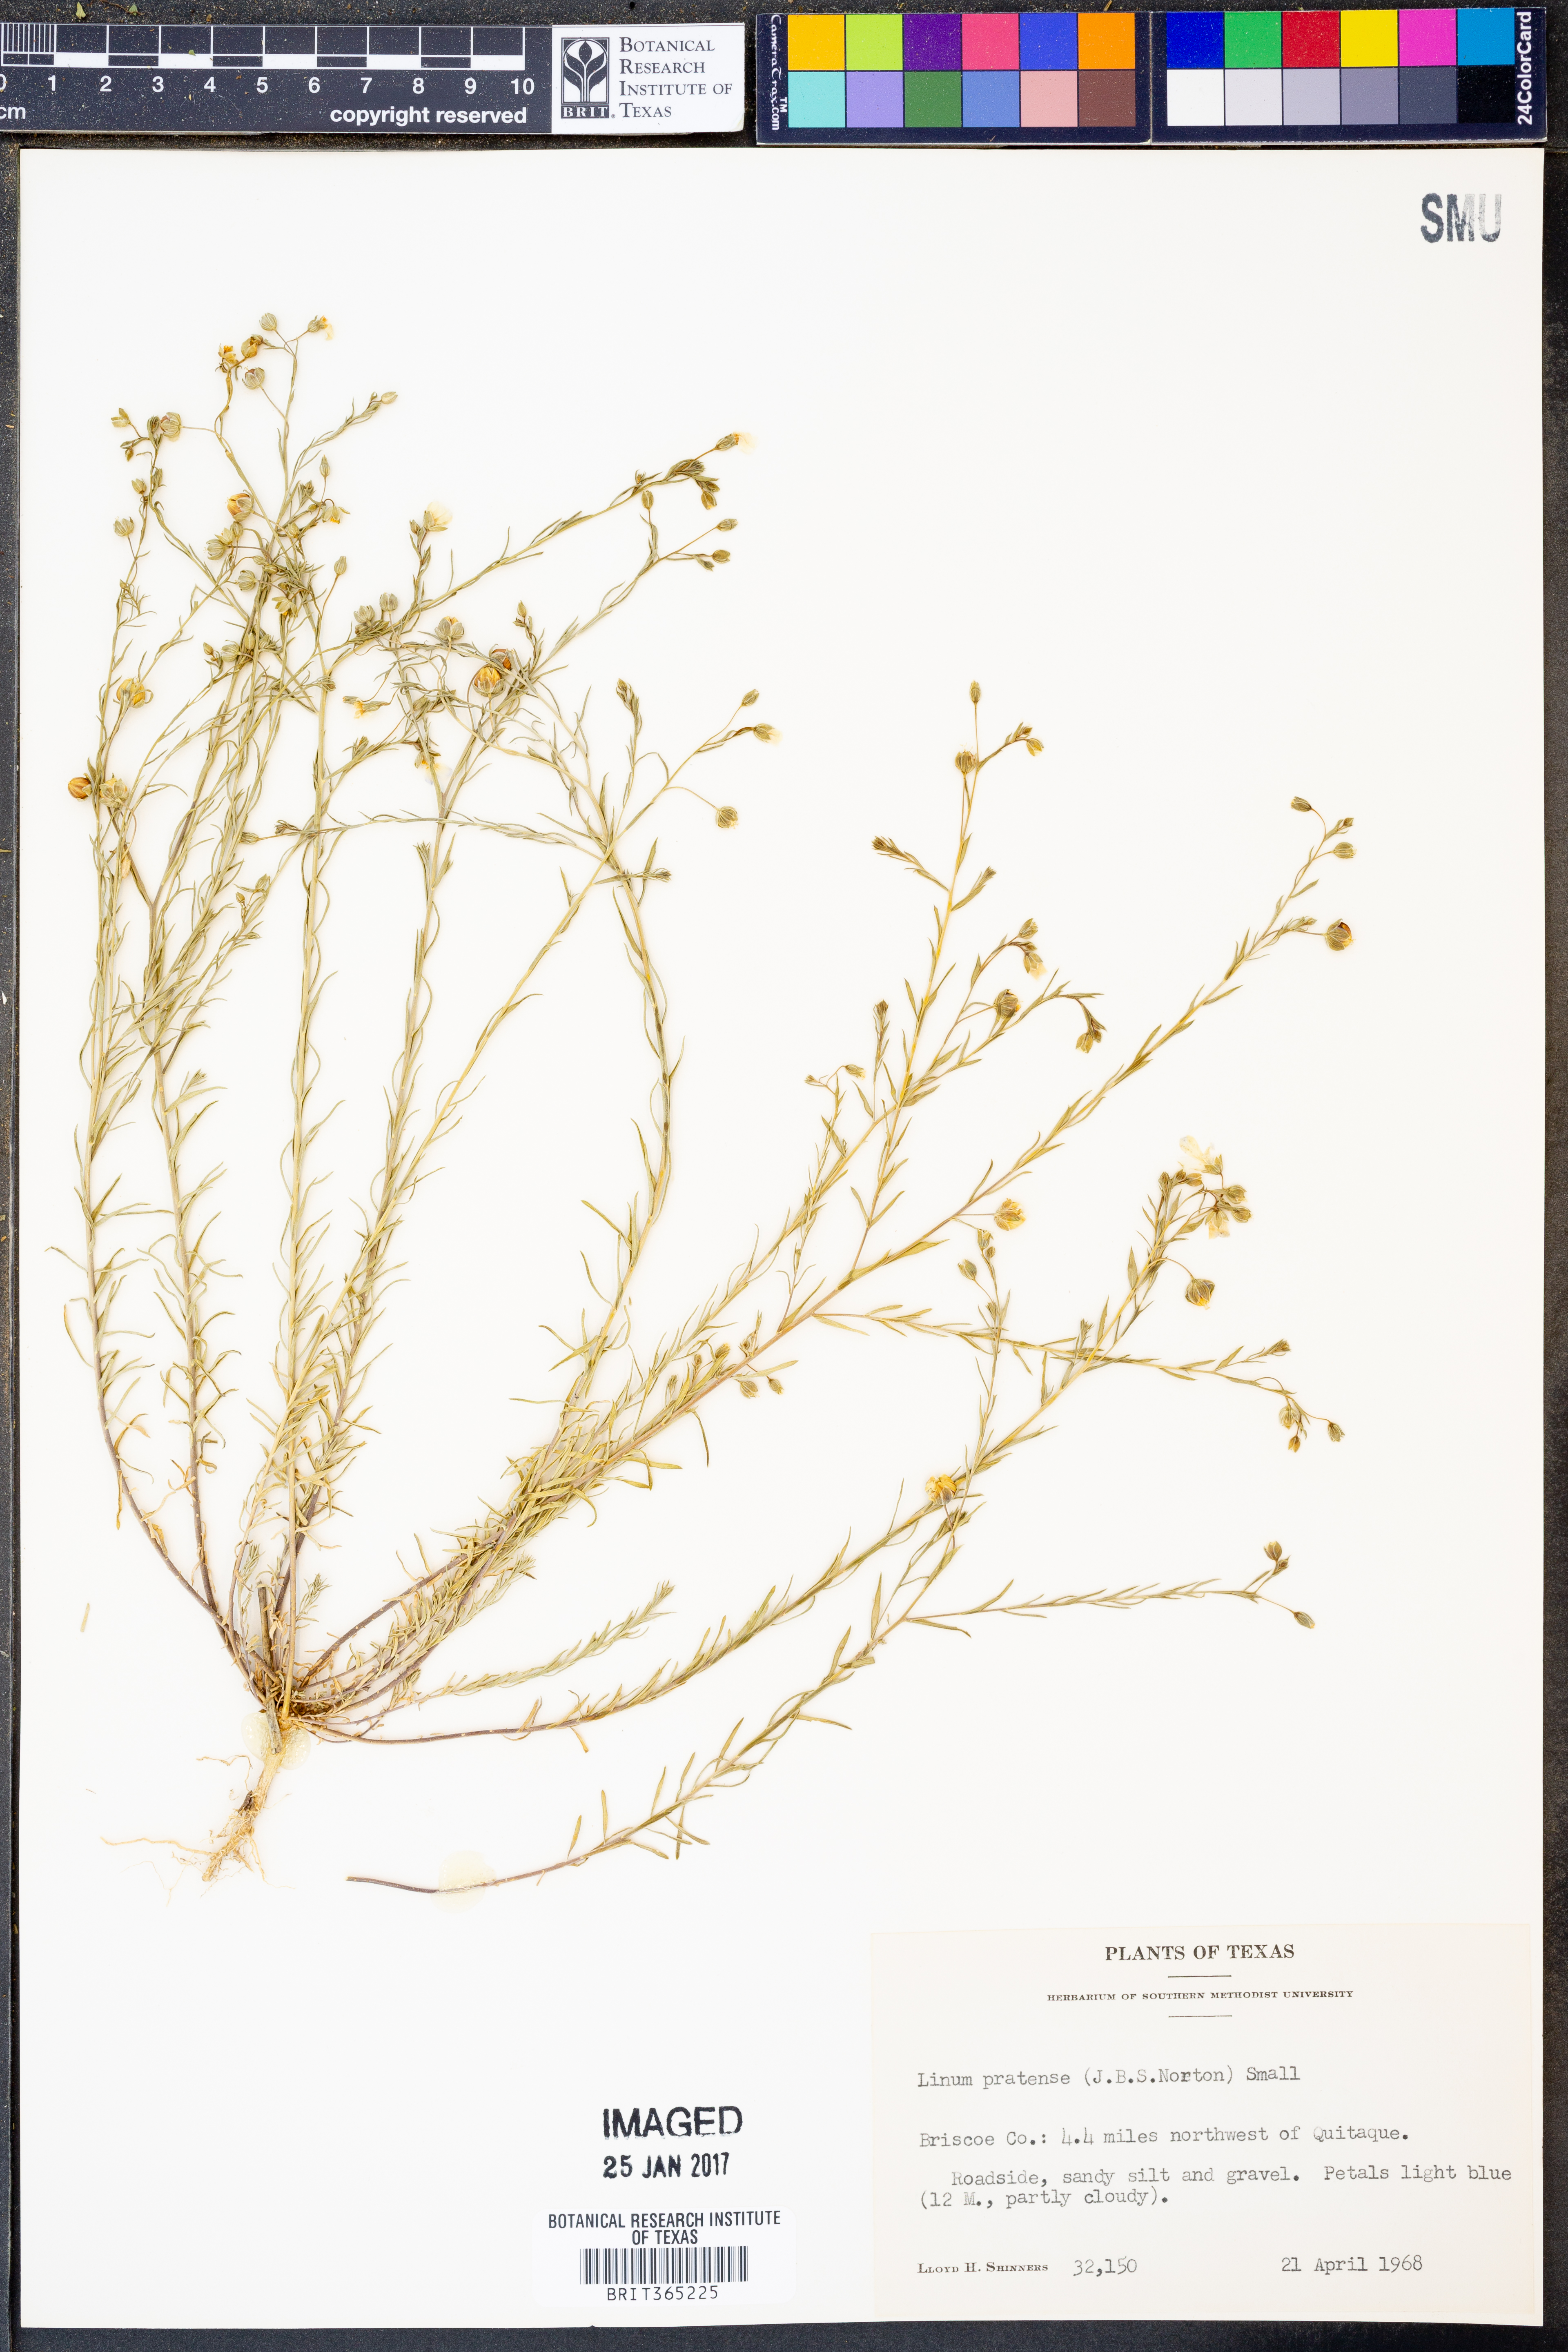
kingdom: Plantae
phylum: Tracheophyta
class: Magnoliopsida
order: Malpighiales
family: Linaceae
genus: Linum
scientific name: Linum pratense
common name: Norton's flax
